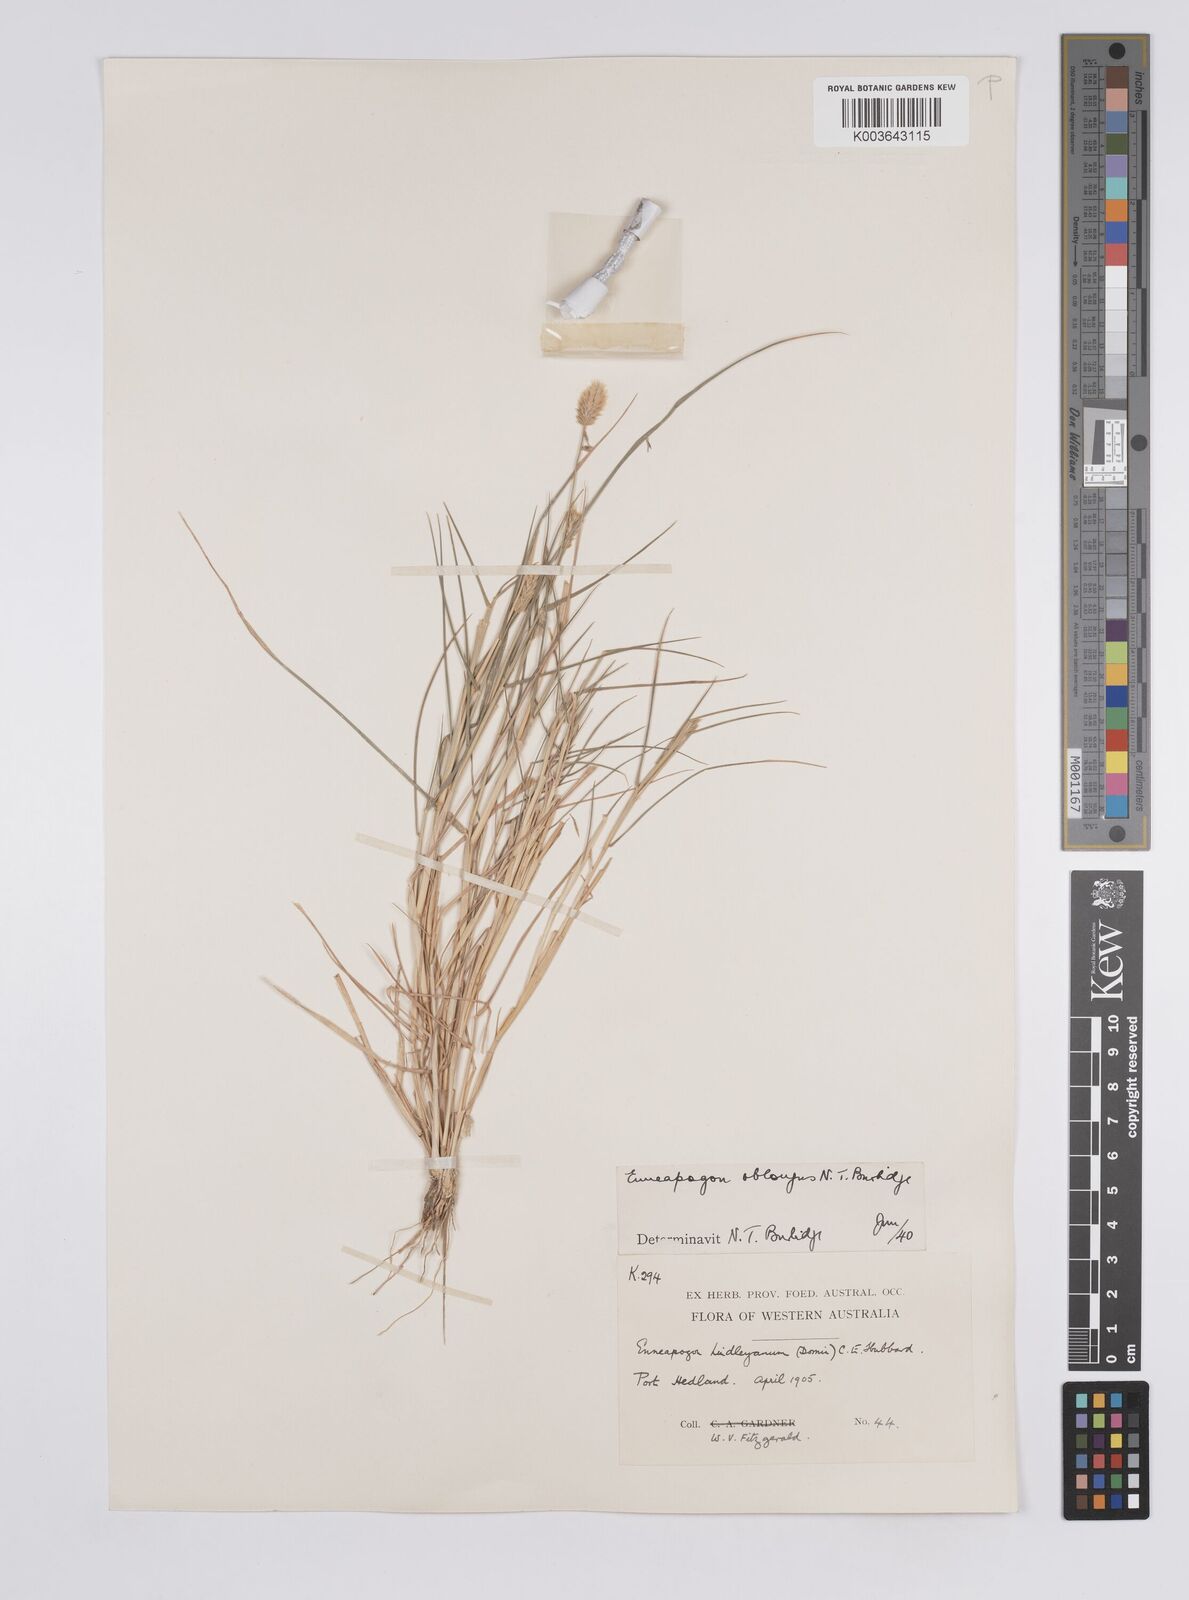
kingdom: Plantae
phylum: Tracheophyta
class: Liliopsida
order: Poales
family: Poaceae
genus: Enneapogon
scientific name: Enneapogon lindleyanus
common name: Conetop nineawn
